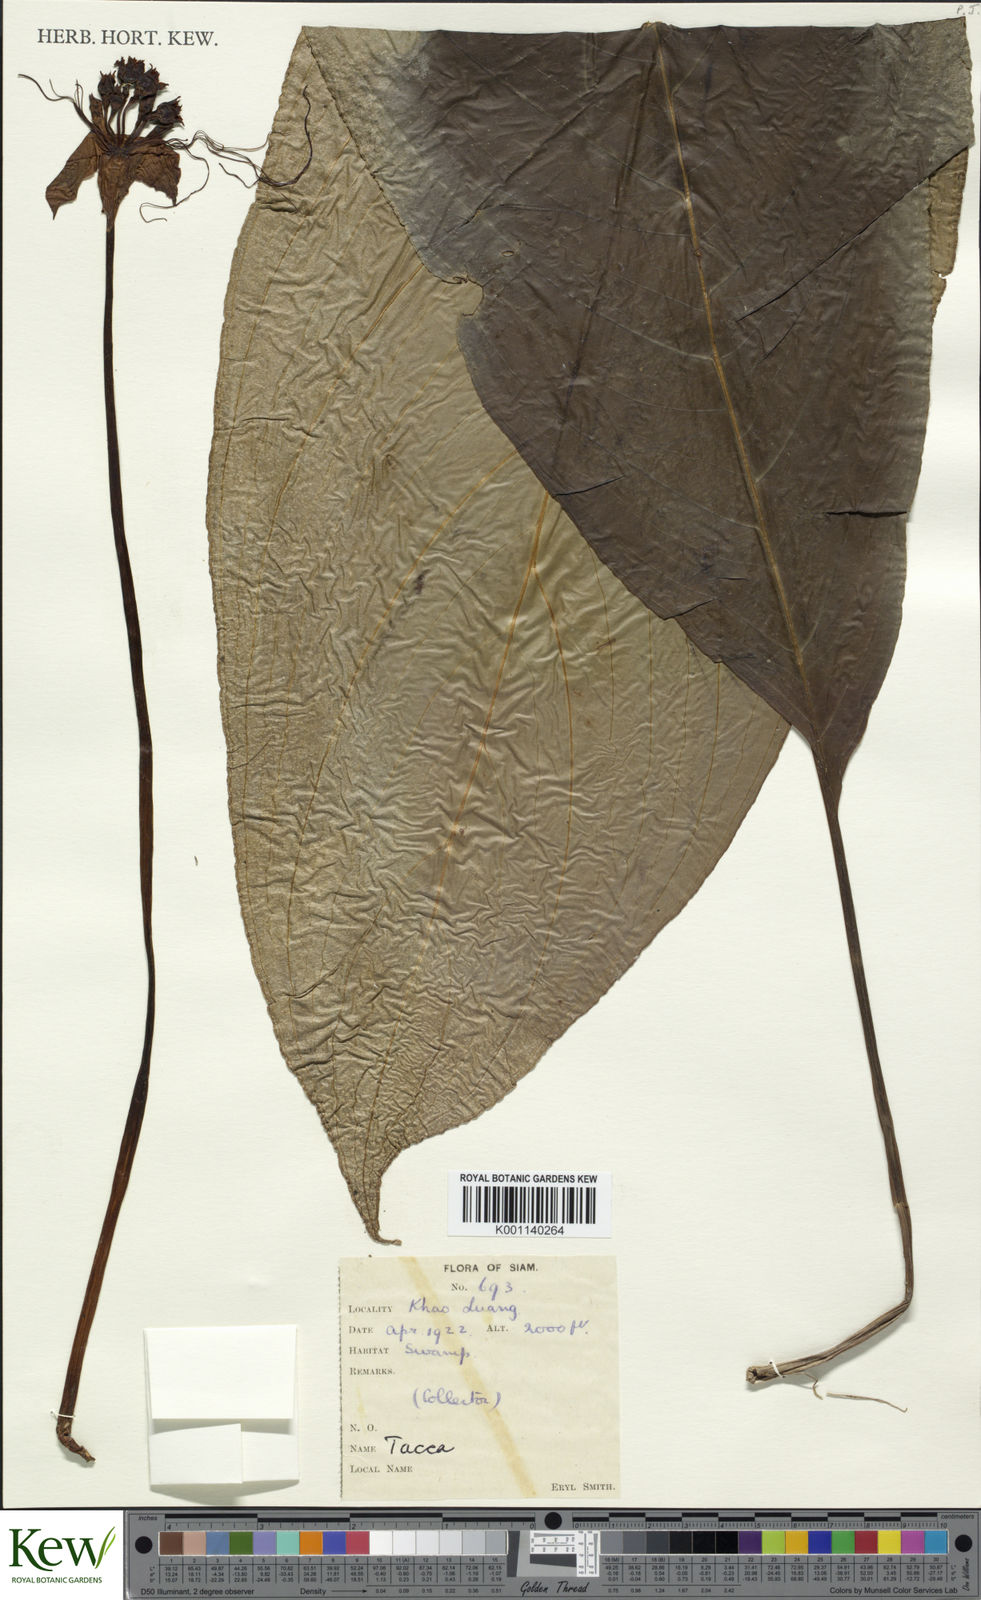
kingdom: Plantae
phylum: Tracheophyta
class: Liliopsida
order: Dioscoreales
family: Dioscoreaceae
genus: Tacca
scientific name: Tacca
